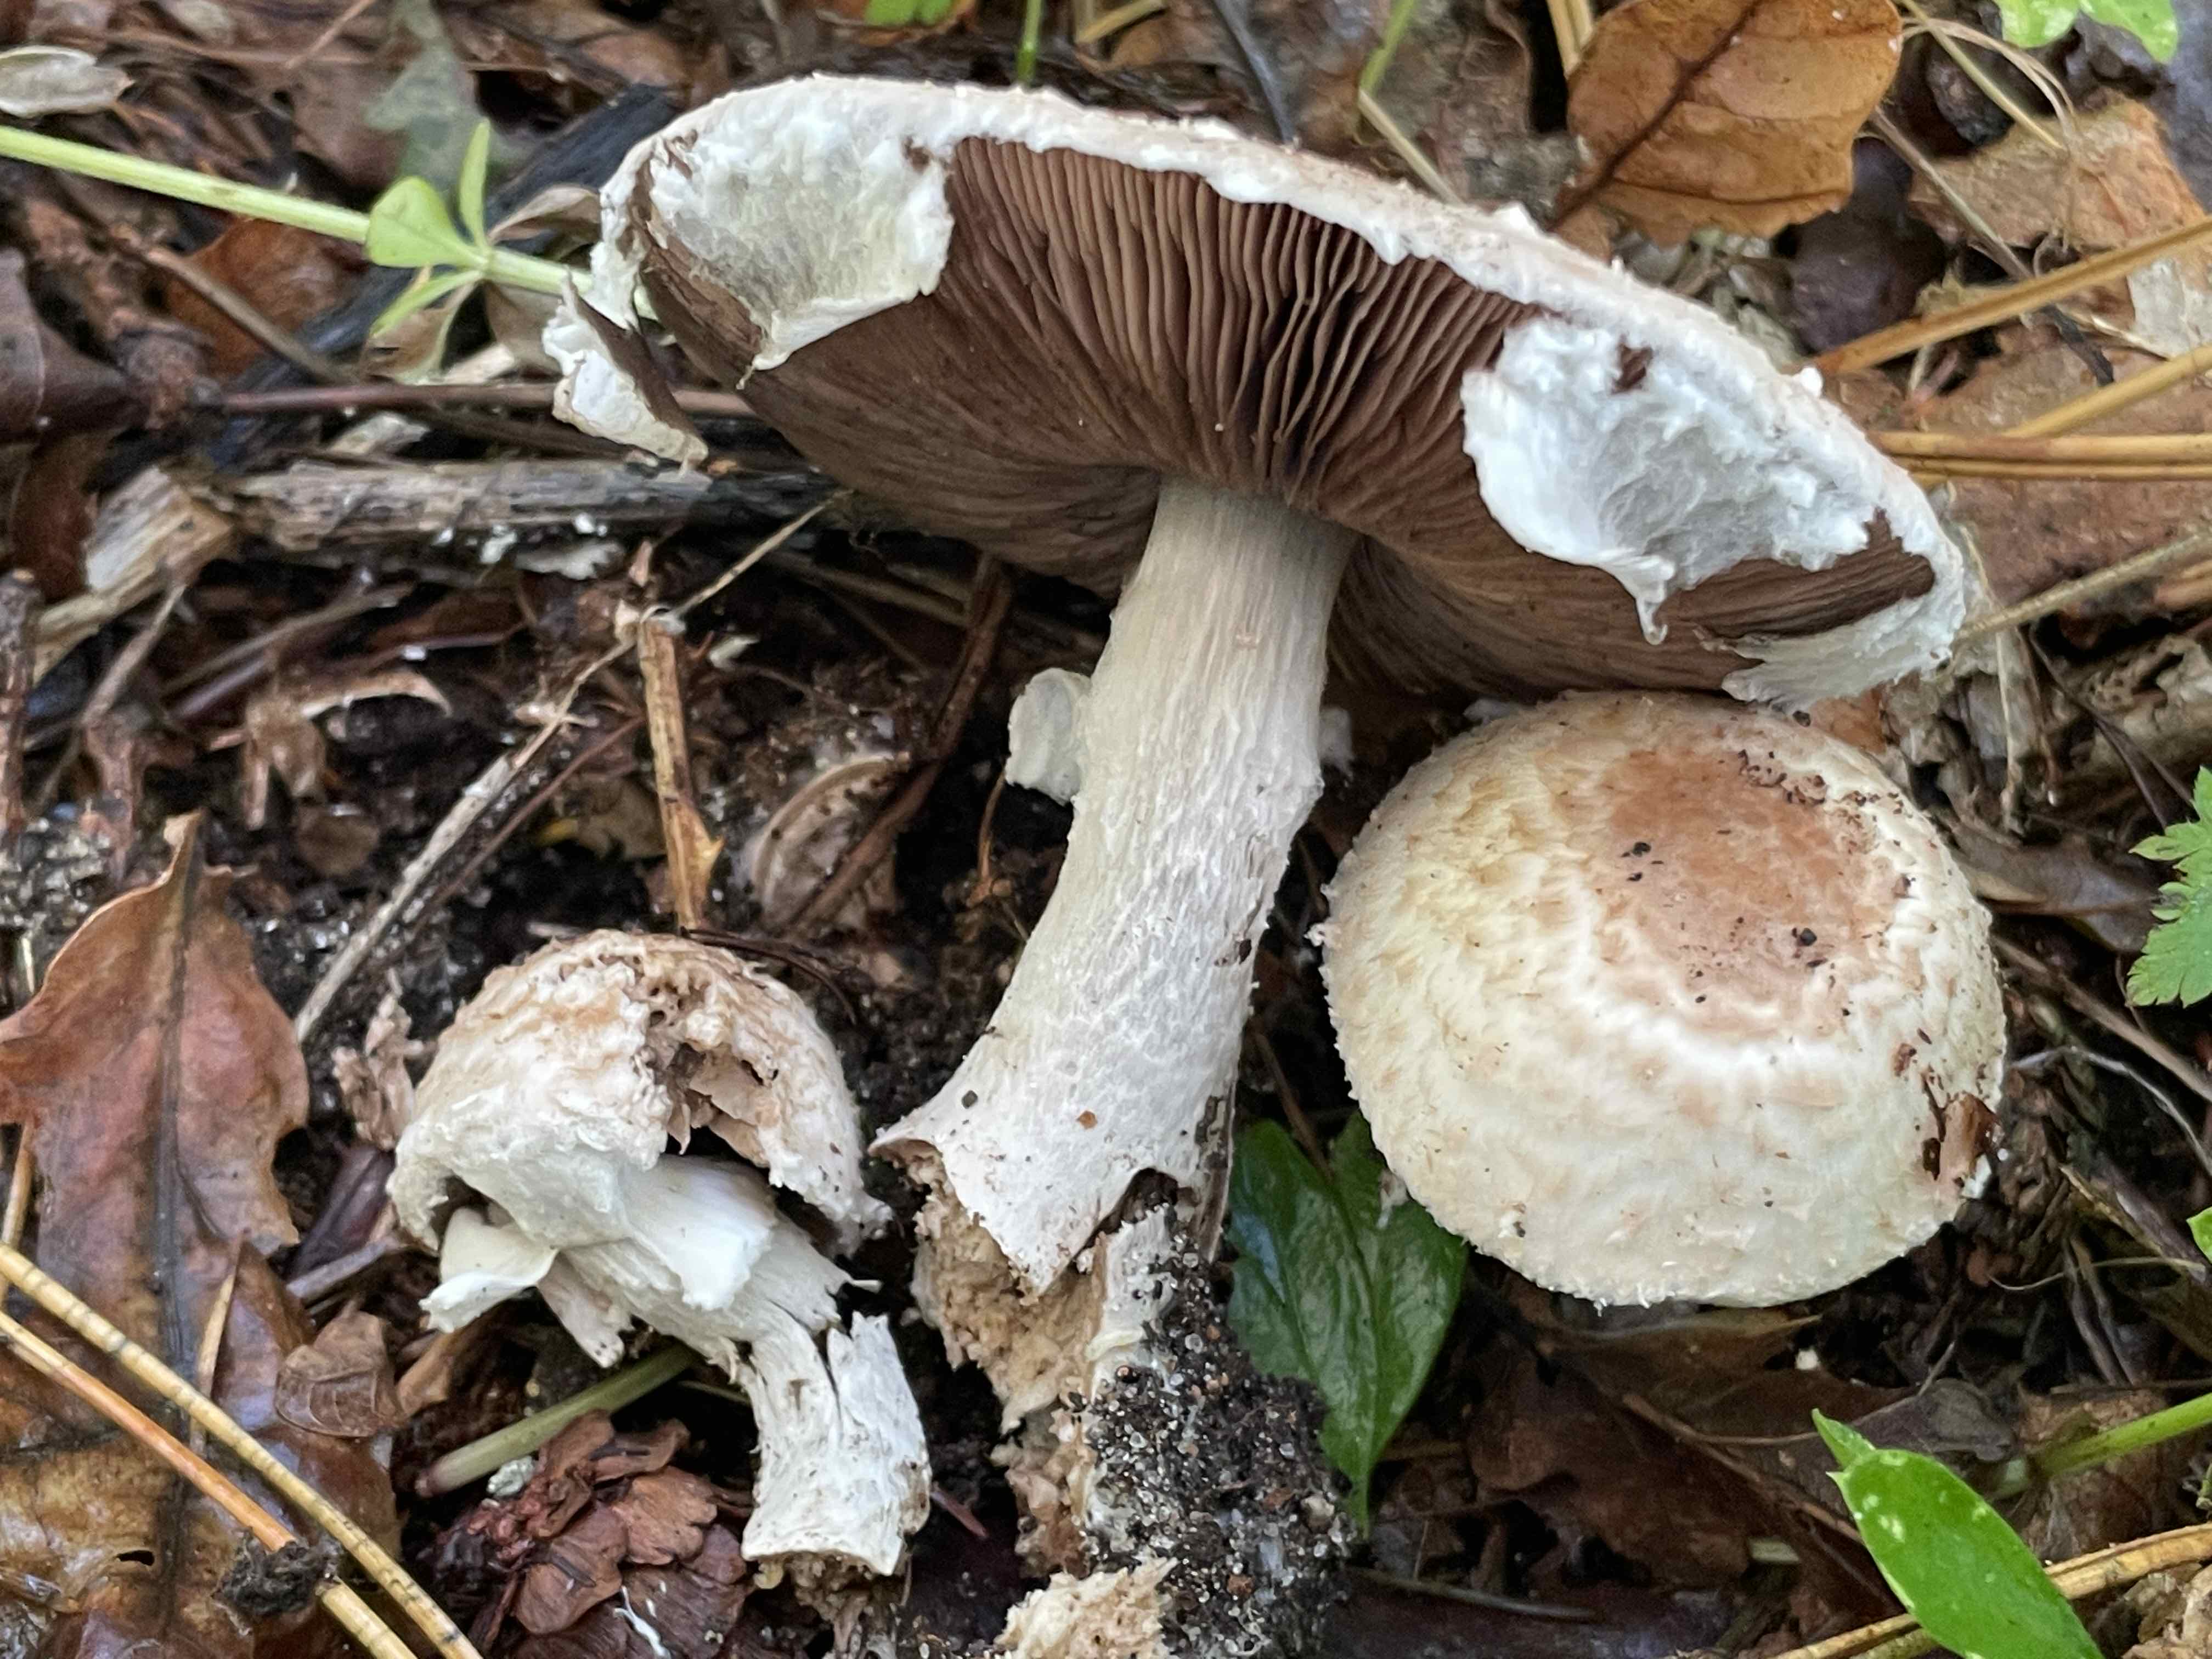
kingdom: Fungi
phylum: Basidiomycota
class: Agaricomycetes
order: Agaricales
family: Agaricaceae
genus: Agaricus
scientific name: Agaricus impudicus
